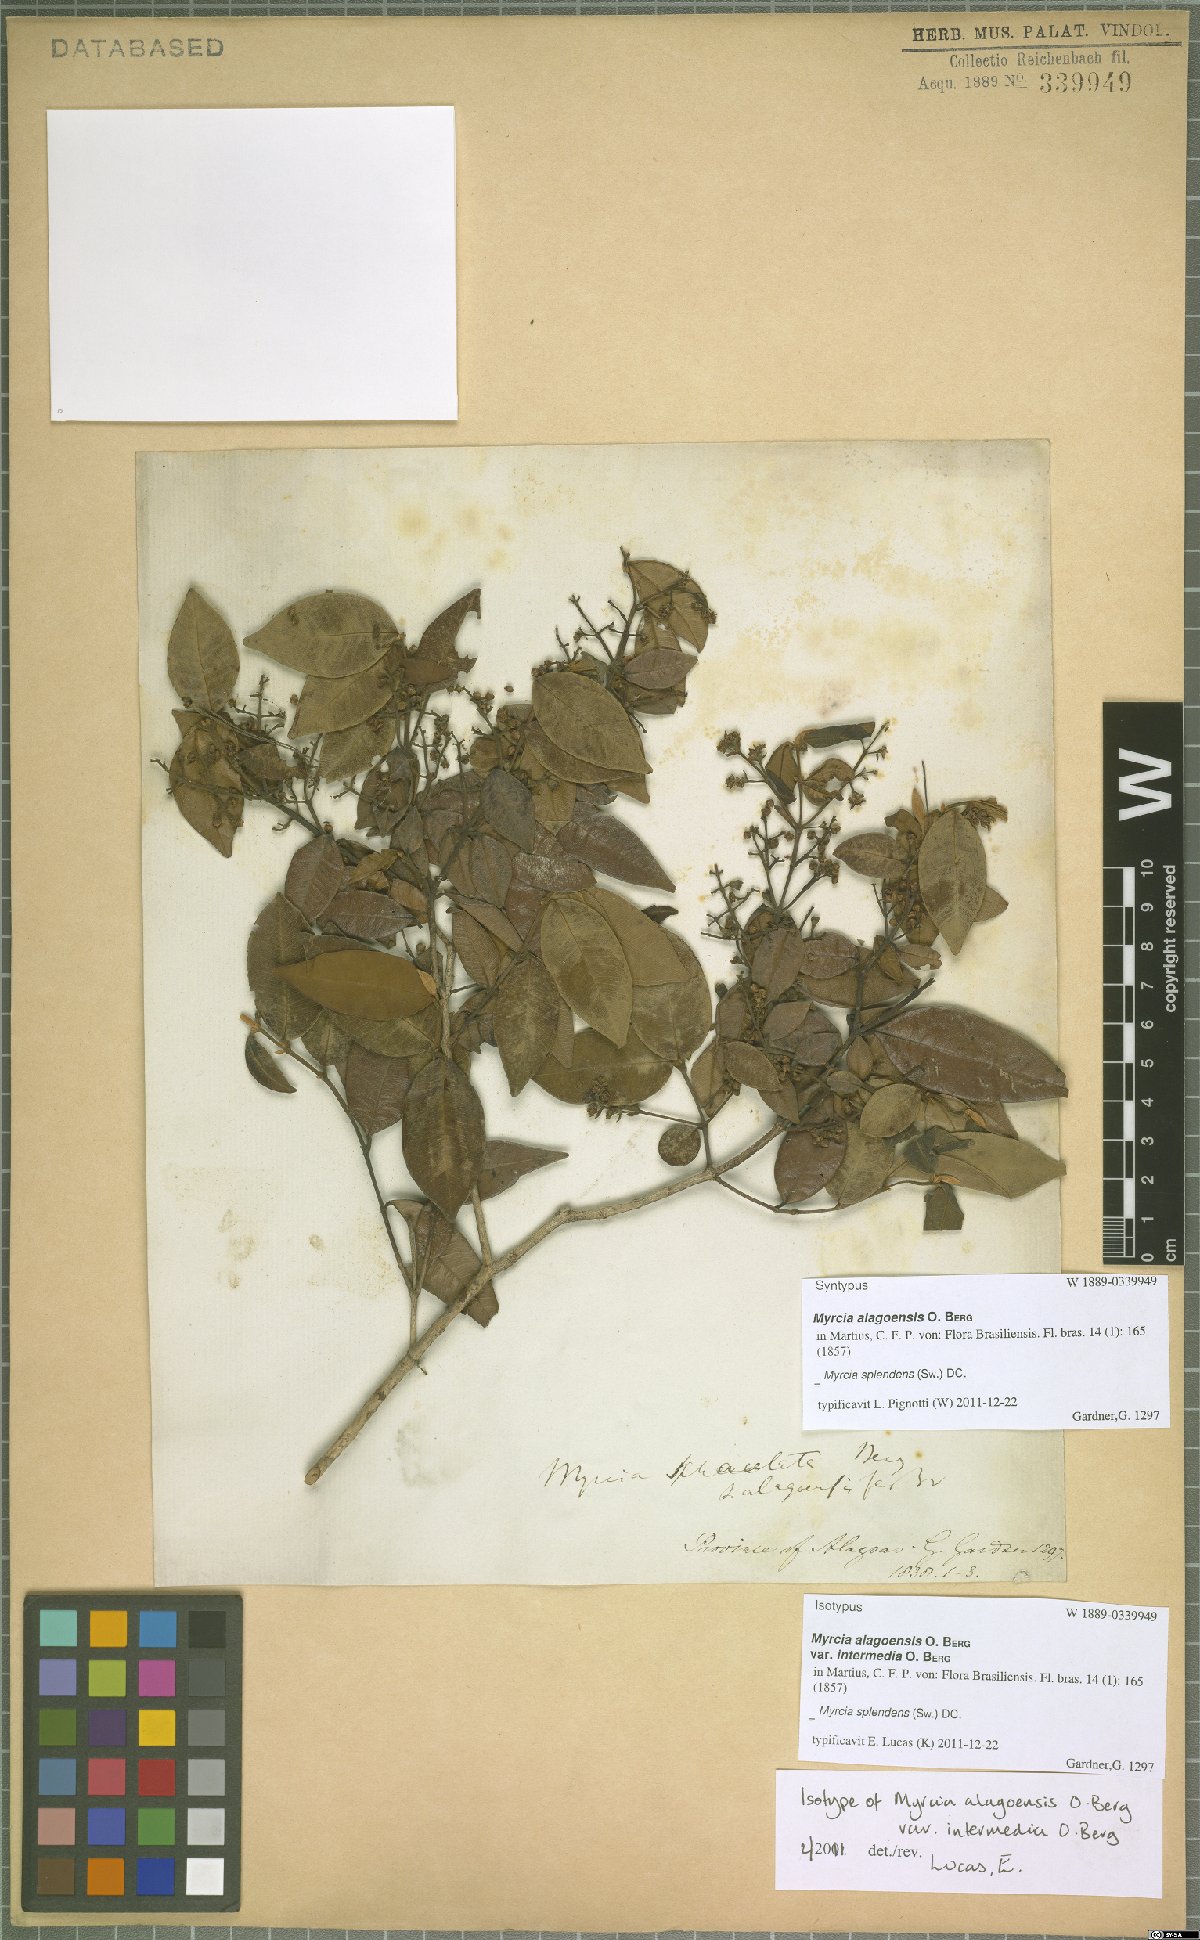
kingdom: Plantae
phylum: Tracheophyta
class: Magnoliopsida
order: Myrtales
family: Myrtaceae
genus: Myrcia
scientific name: Myrcia splendens
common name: Surinam cherry
